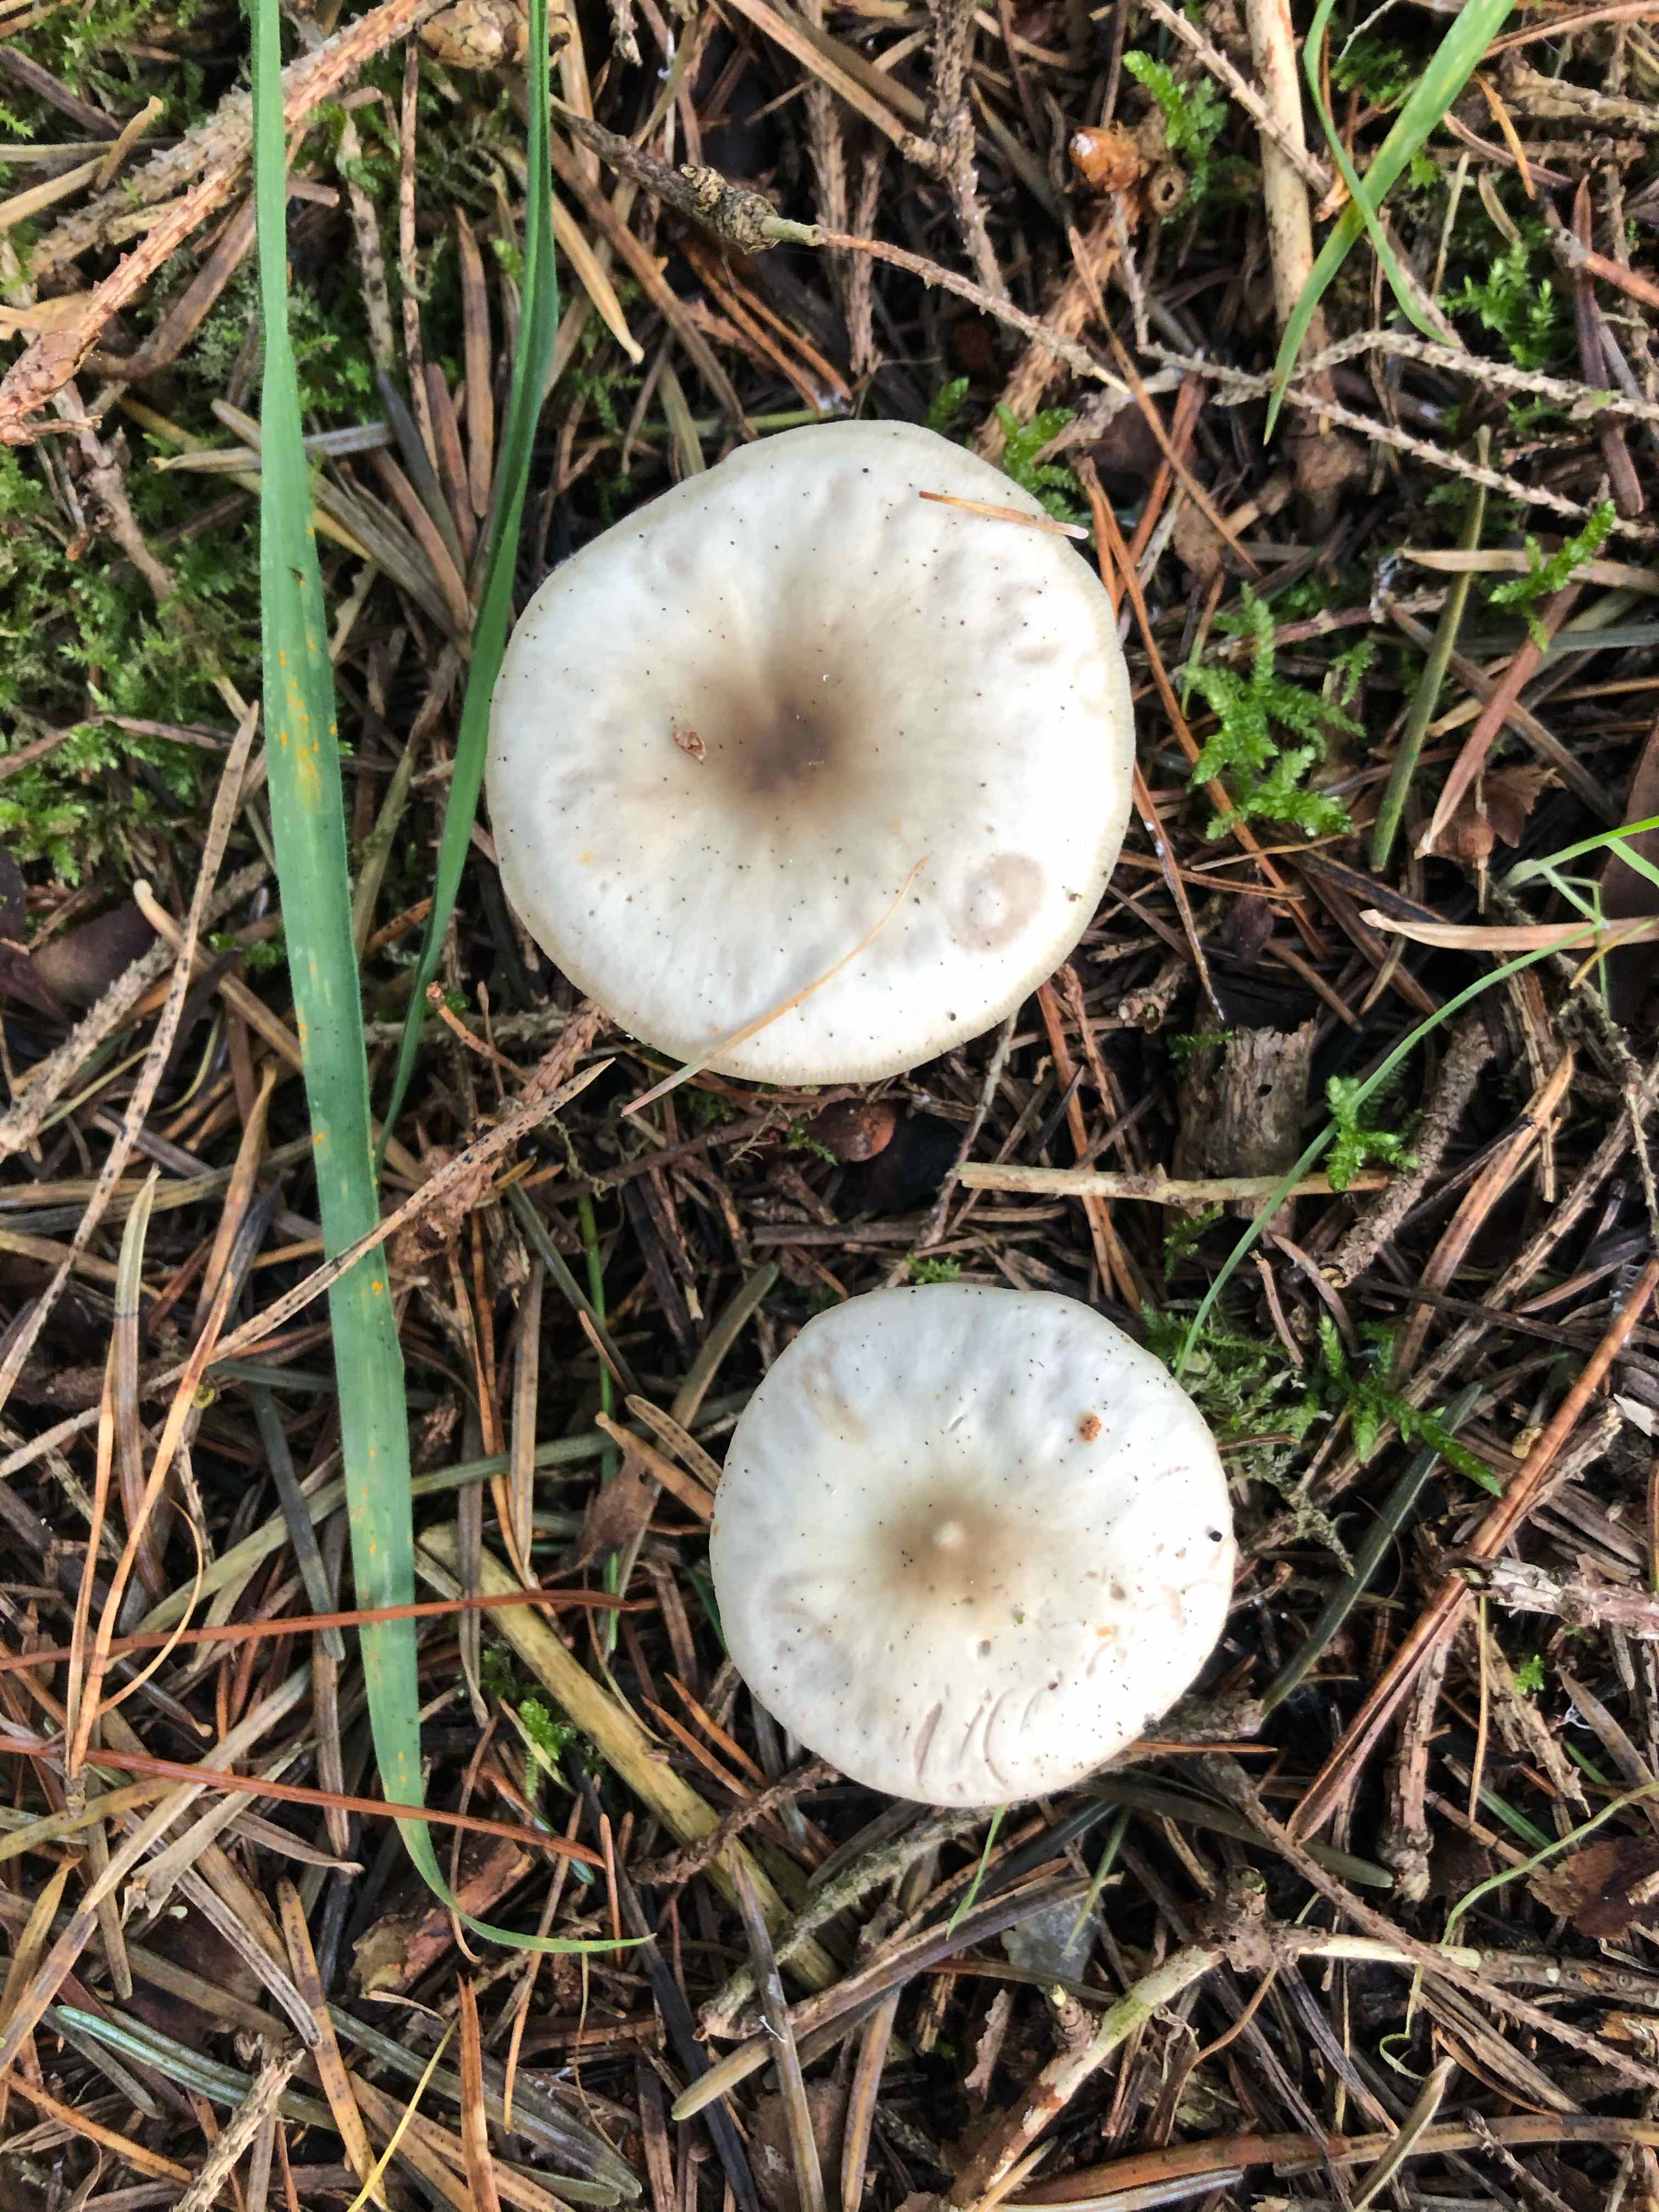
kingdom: Fungi
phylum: Basidiomycota
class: Agaricomycetes
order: Agaricales
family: Omphalotaceae
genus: Rhodocollybia
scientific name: Rhodocollybia asema
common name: horngrå fladhat
